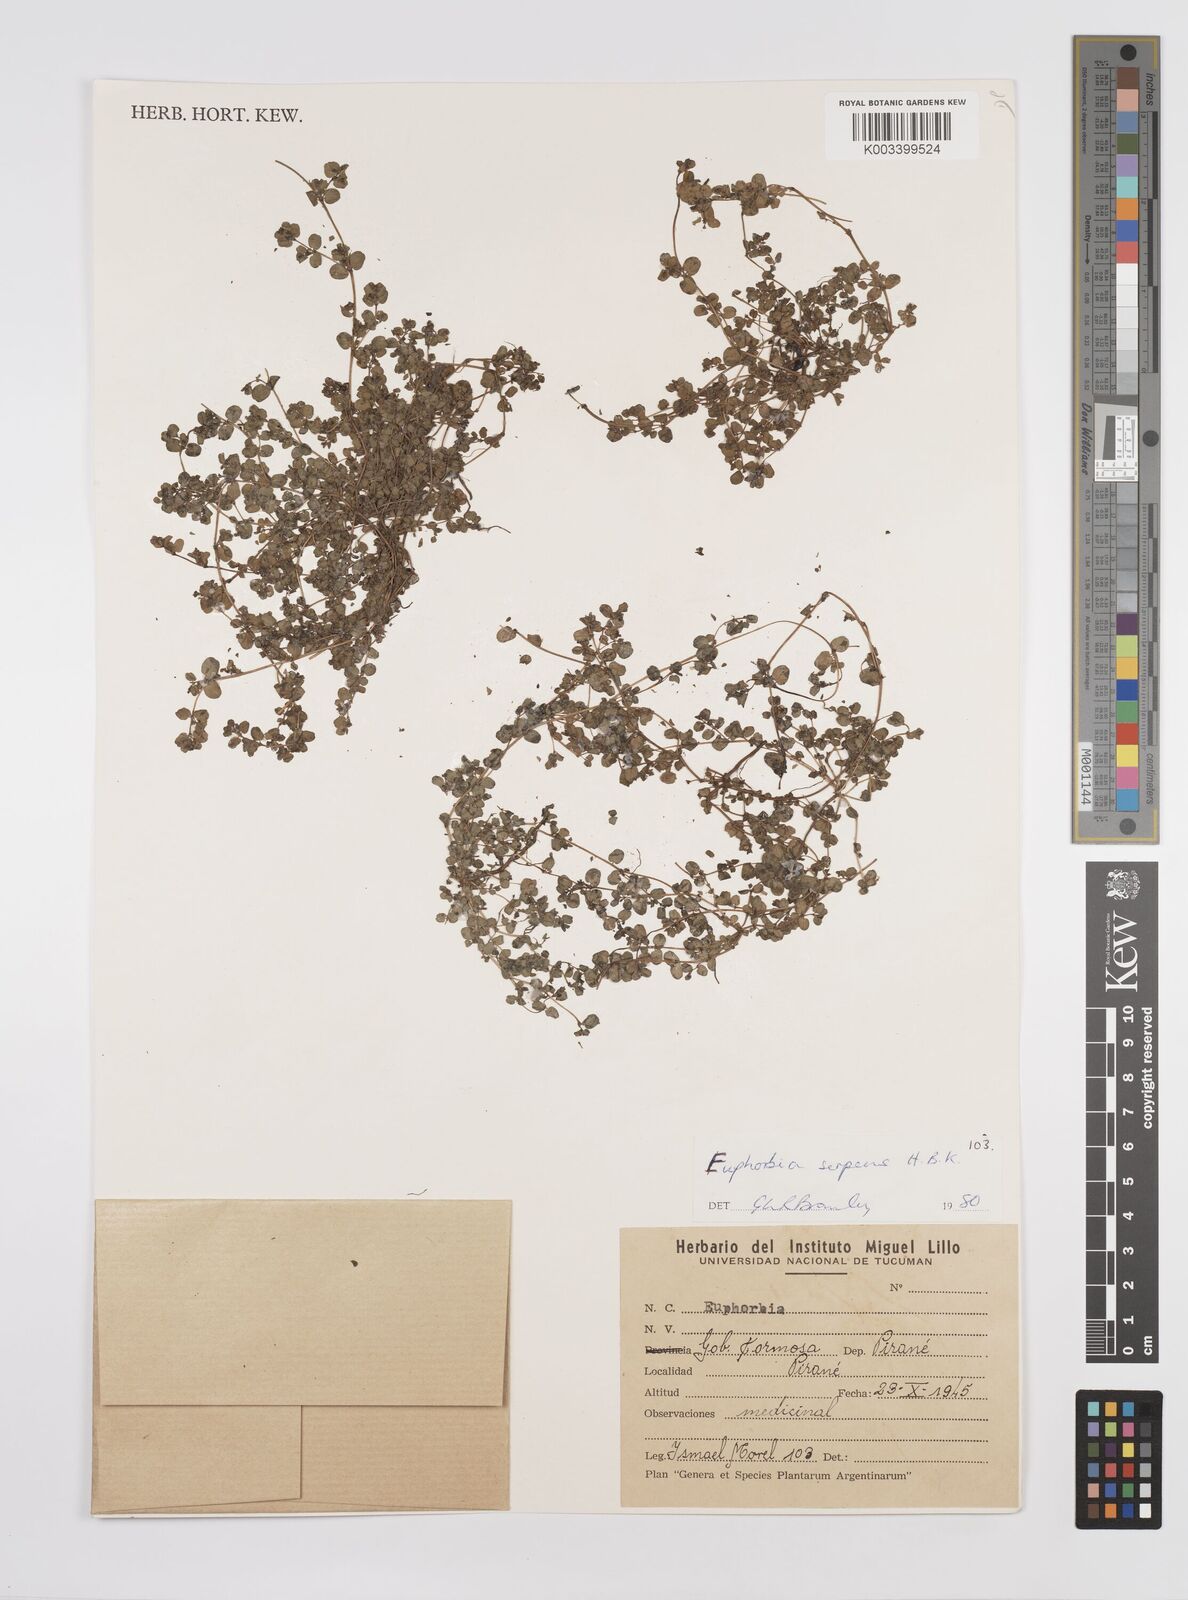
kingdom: Plantae
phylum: Tracheophyta
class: Magnoliopsida
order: Malpighiales
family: Euphorbiaceae
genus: Euphorbia
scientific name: Euphorbia
